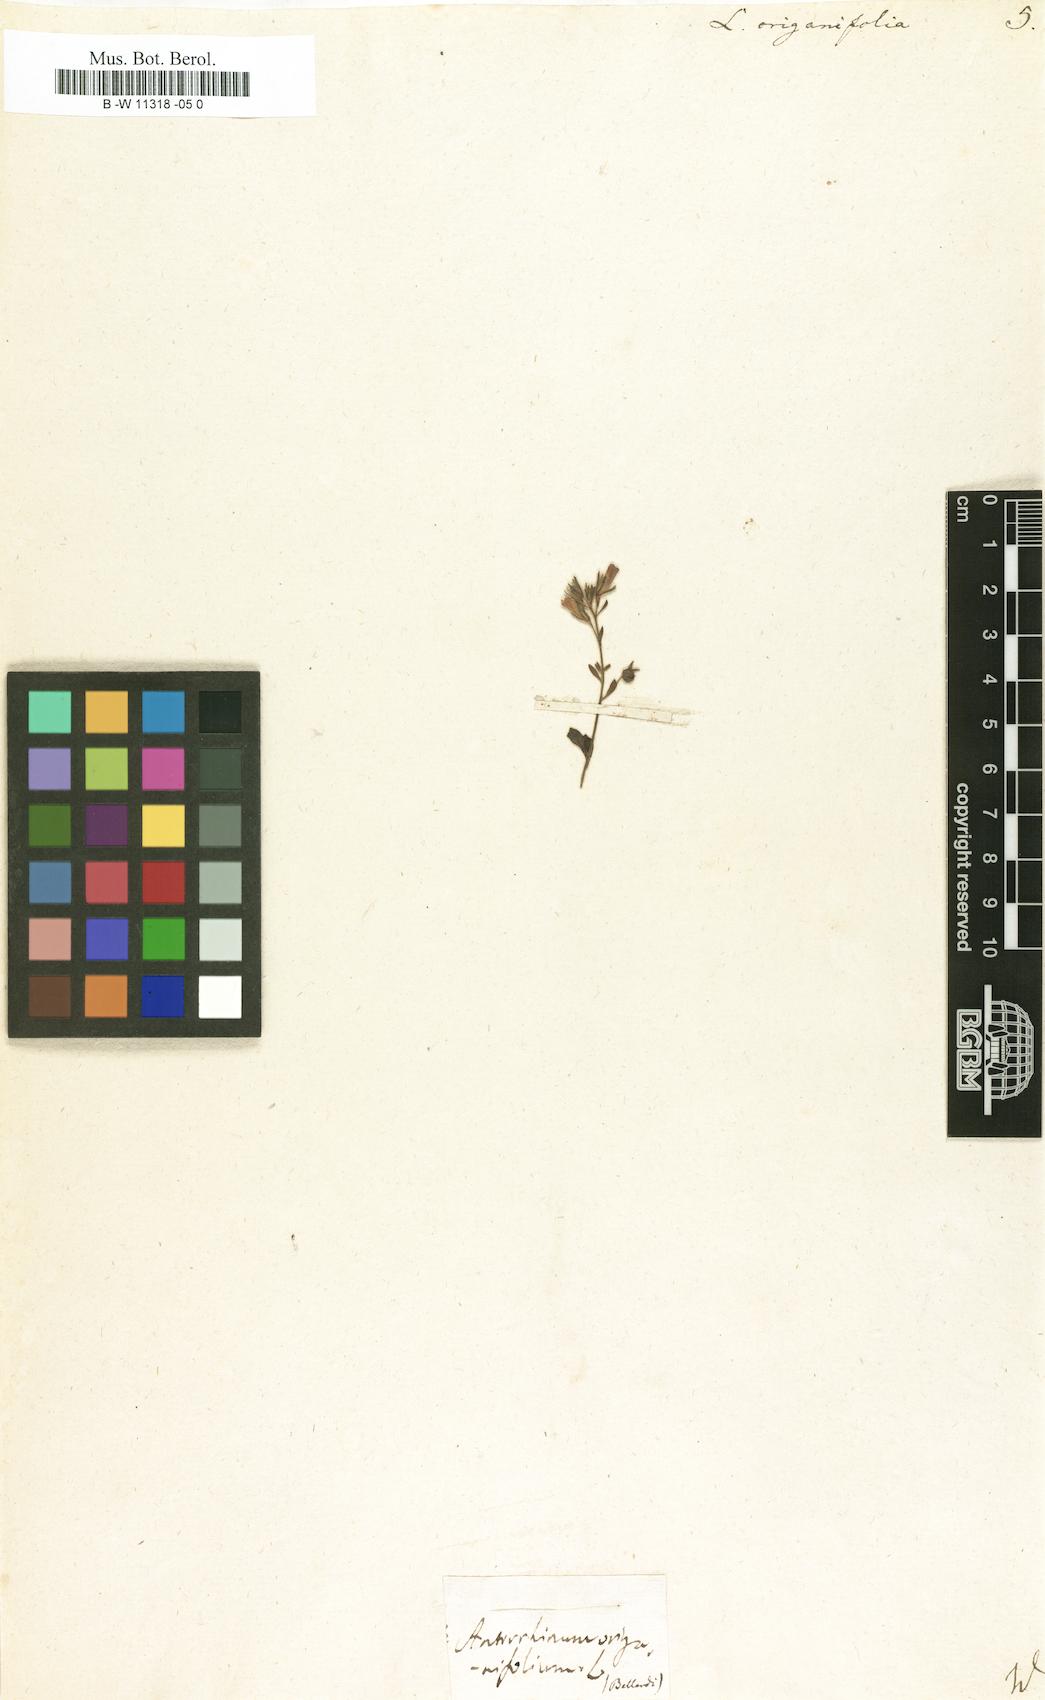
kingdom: Plantae
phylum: Tracheophyta
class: Magnoliopsida
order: Lamiales
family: Plantaginaceae
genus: Chaenorhinum
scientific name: Chaenorhinum origanifolium
